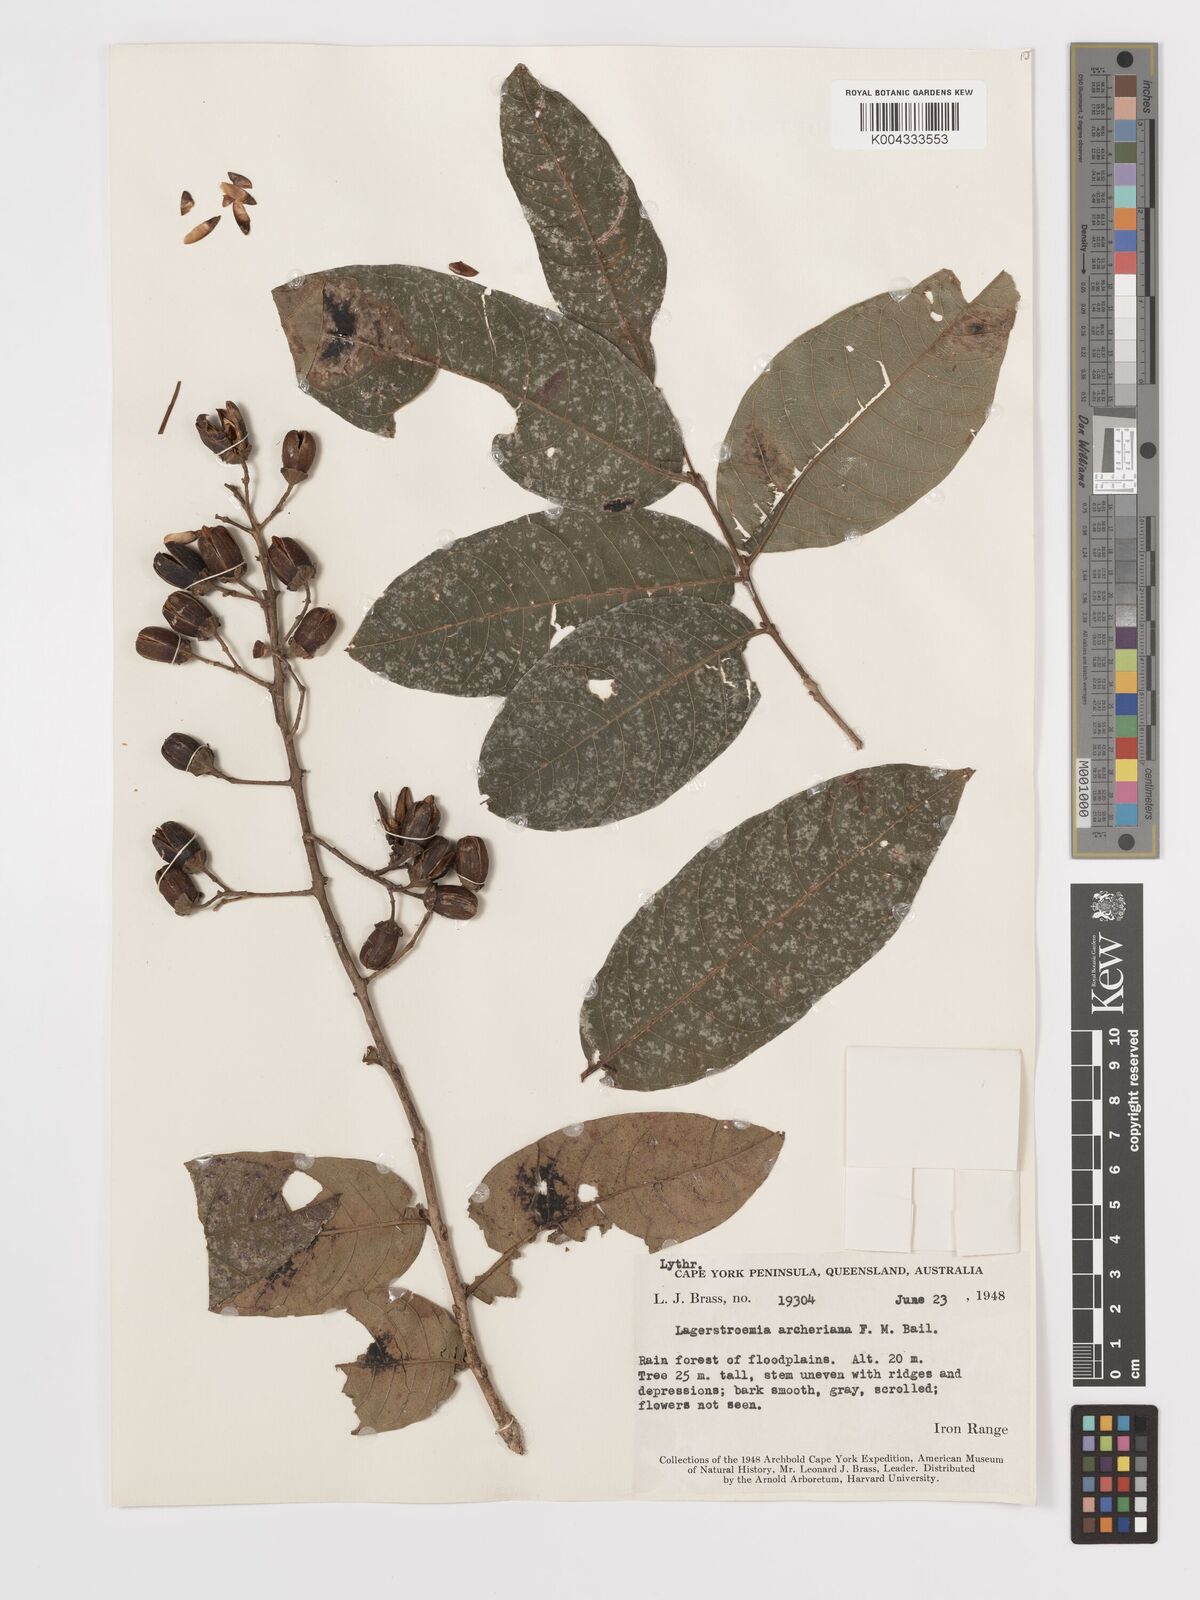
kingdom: Plantae
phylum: Tracheophyta
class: Magnoliopsida
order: Myrtales
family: Lythraceae
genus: Lagerstroemia
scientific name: Lagerstroemia engleriana
